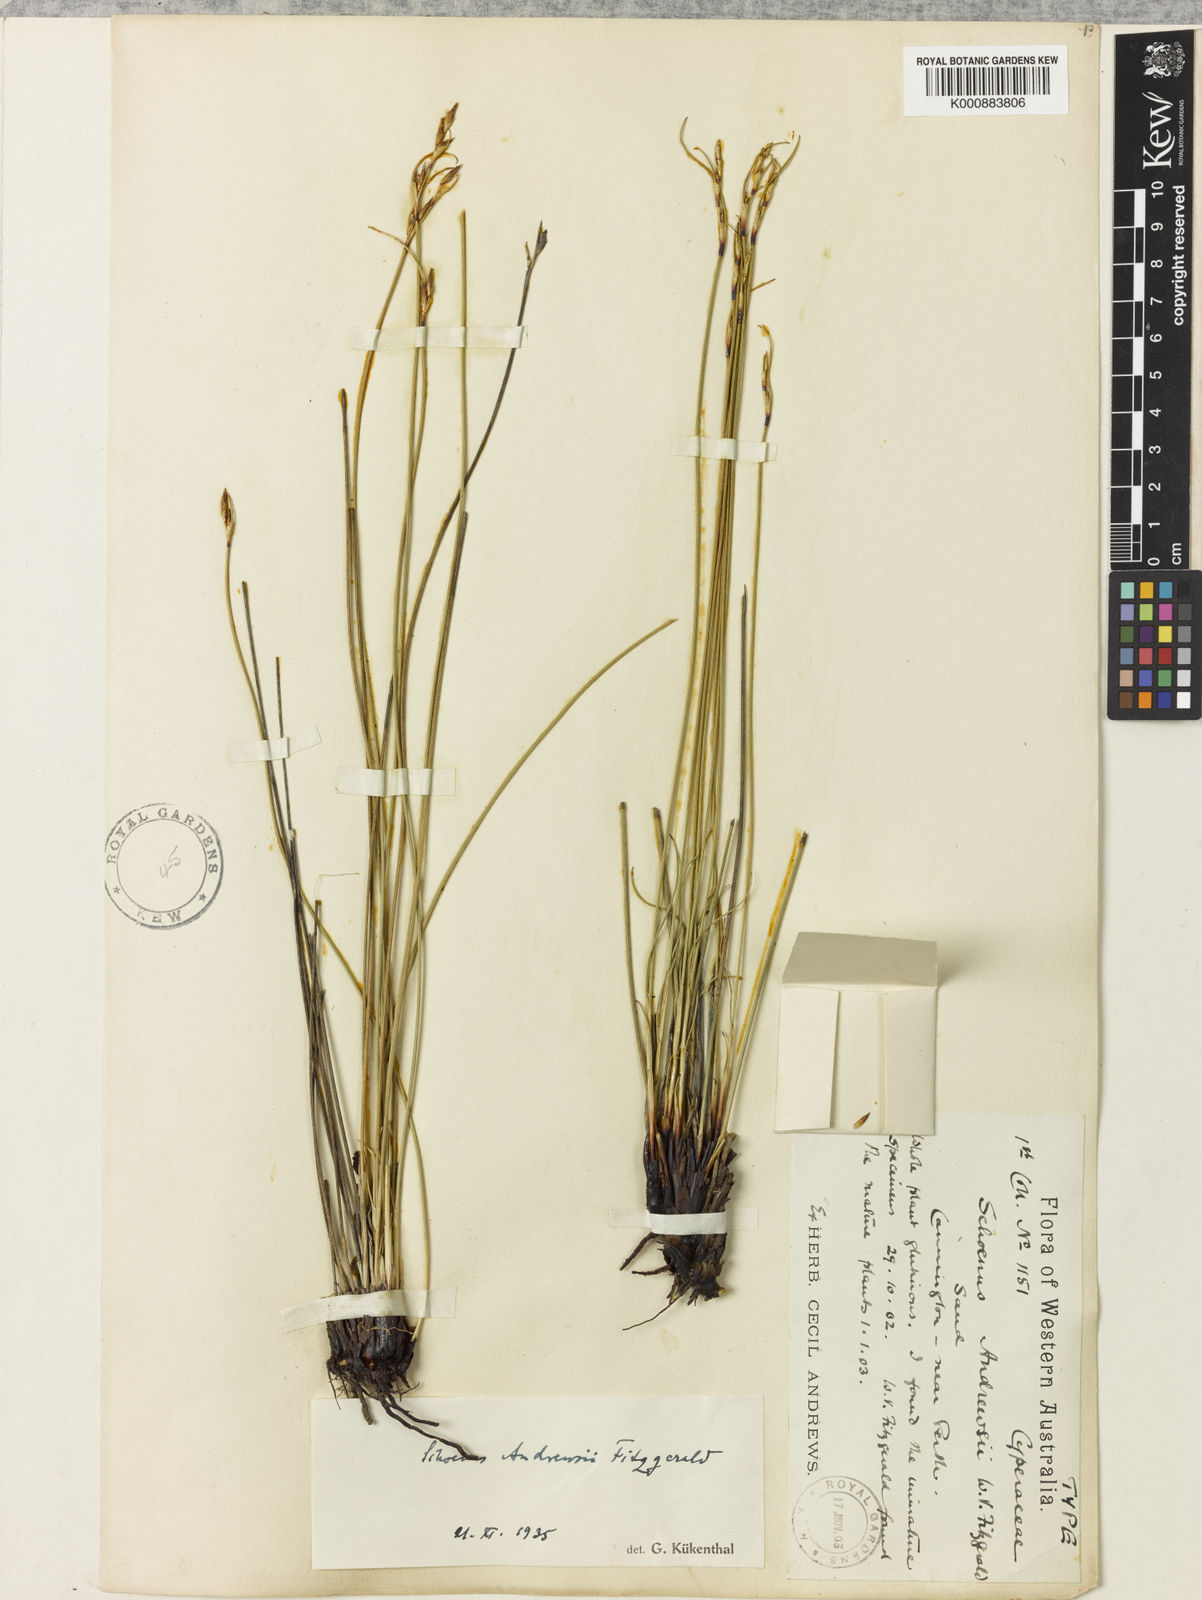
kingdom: Plantae
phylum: Tracheophyta
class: Liliopsida
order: Poales
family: Cyperaceae
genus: Schoenus
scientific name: Schoenus andrewsii
